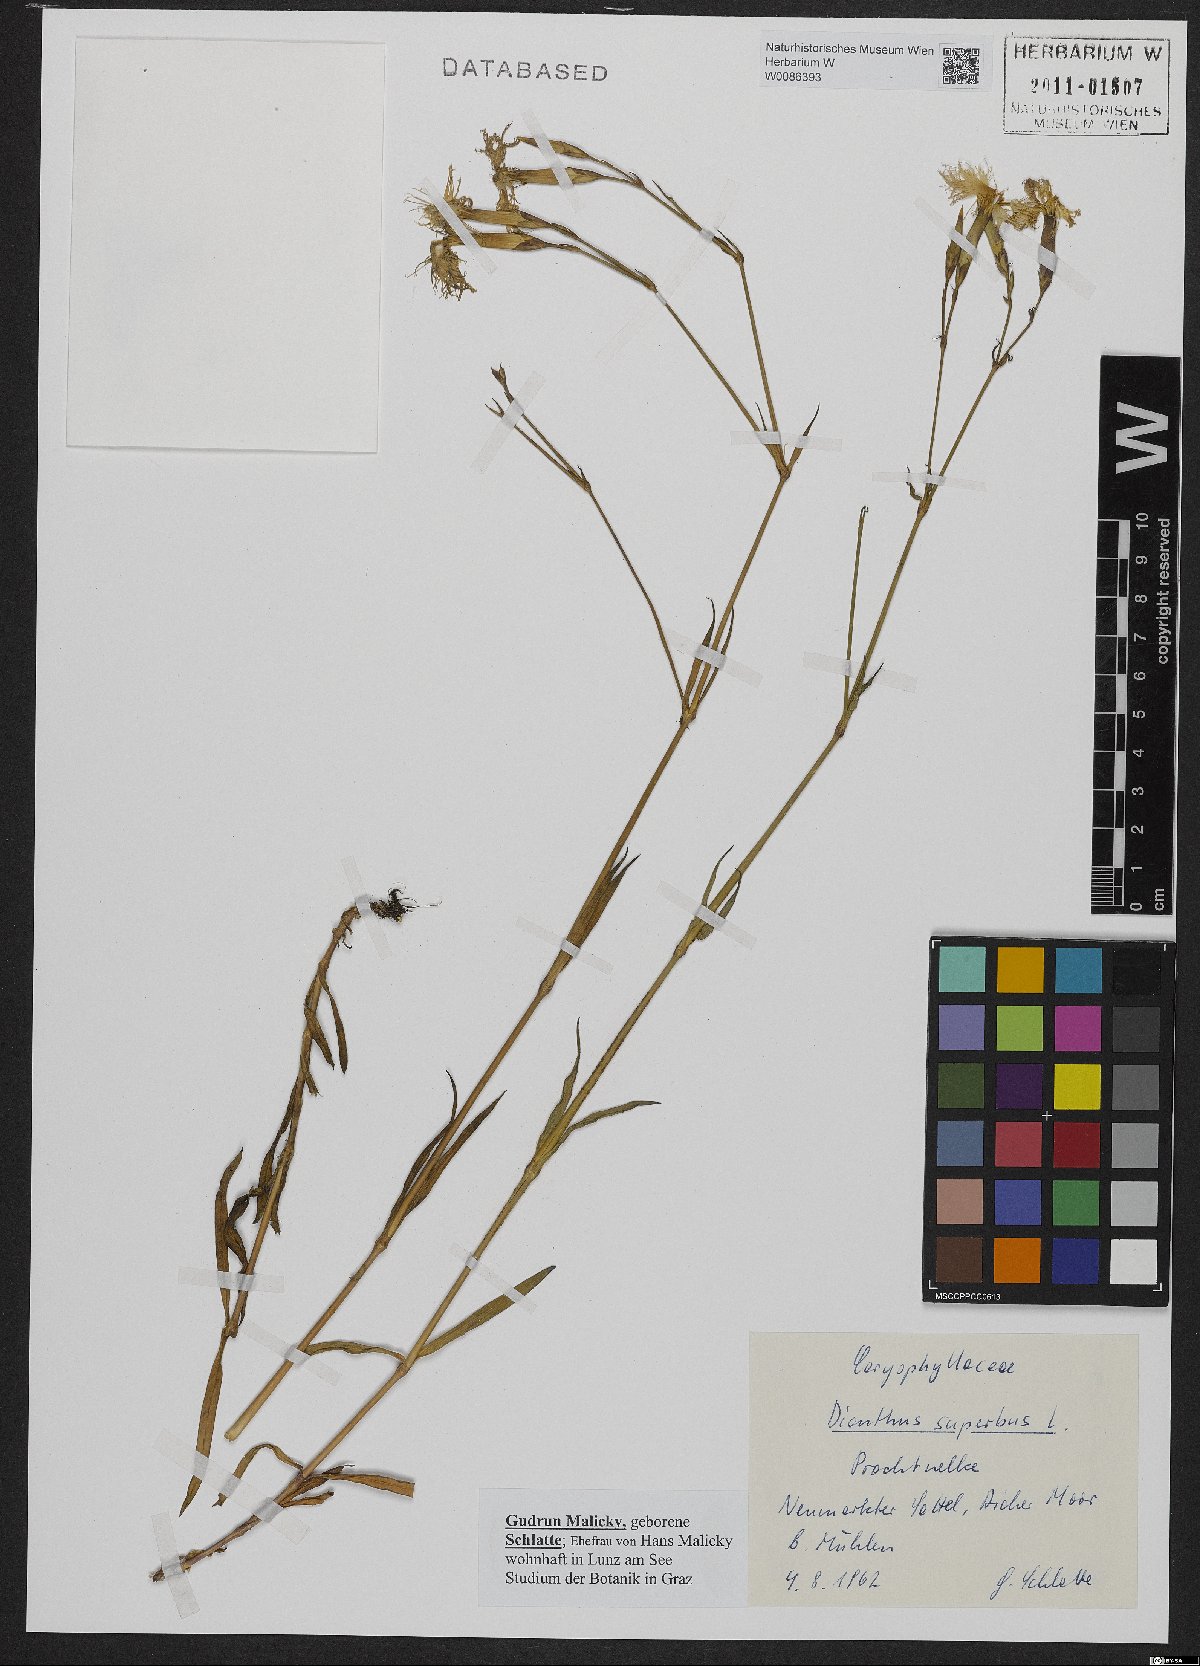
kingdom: Plantae
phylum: Tracheophyta
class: Magnoliopsida
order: Caryophyllales
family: Caryophyllaceae
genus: Dianthus
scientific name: Dianthus superbus
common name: Fringed pink
